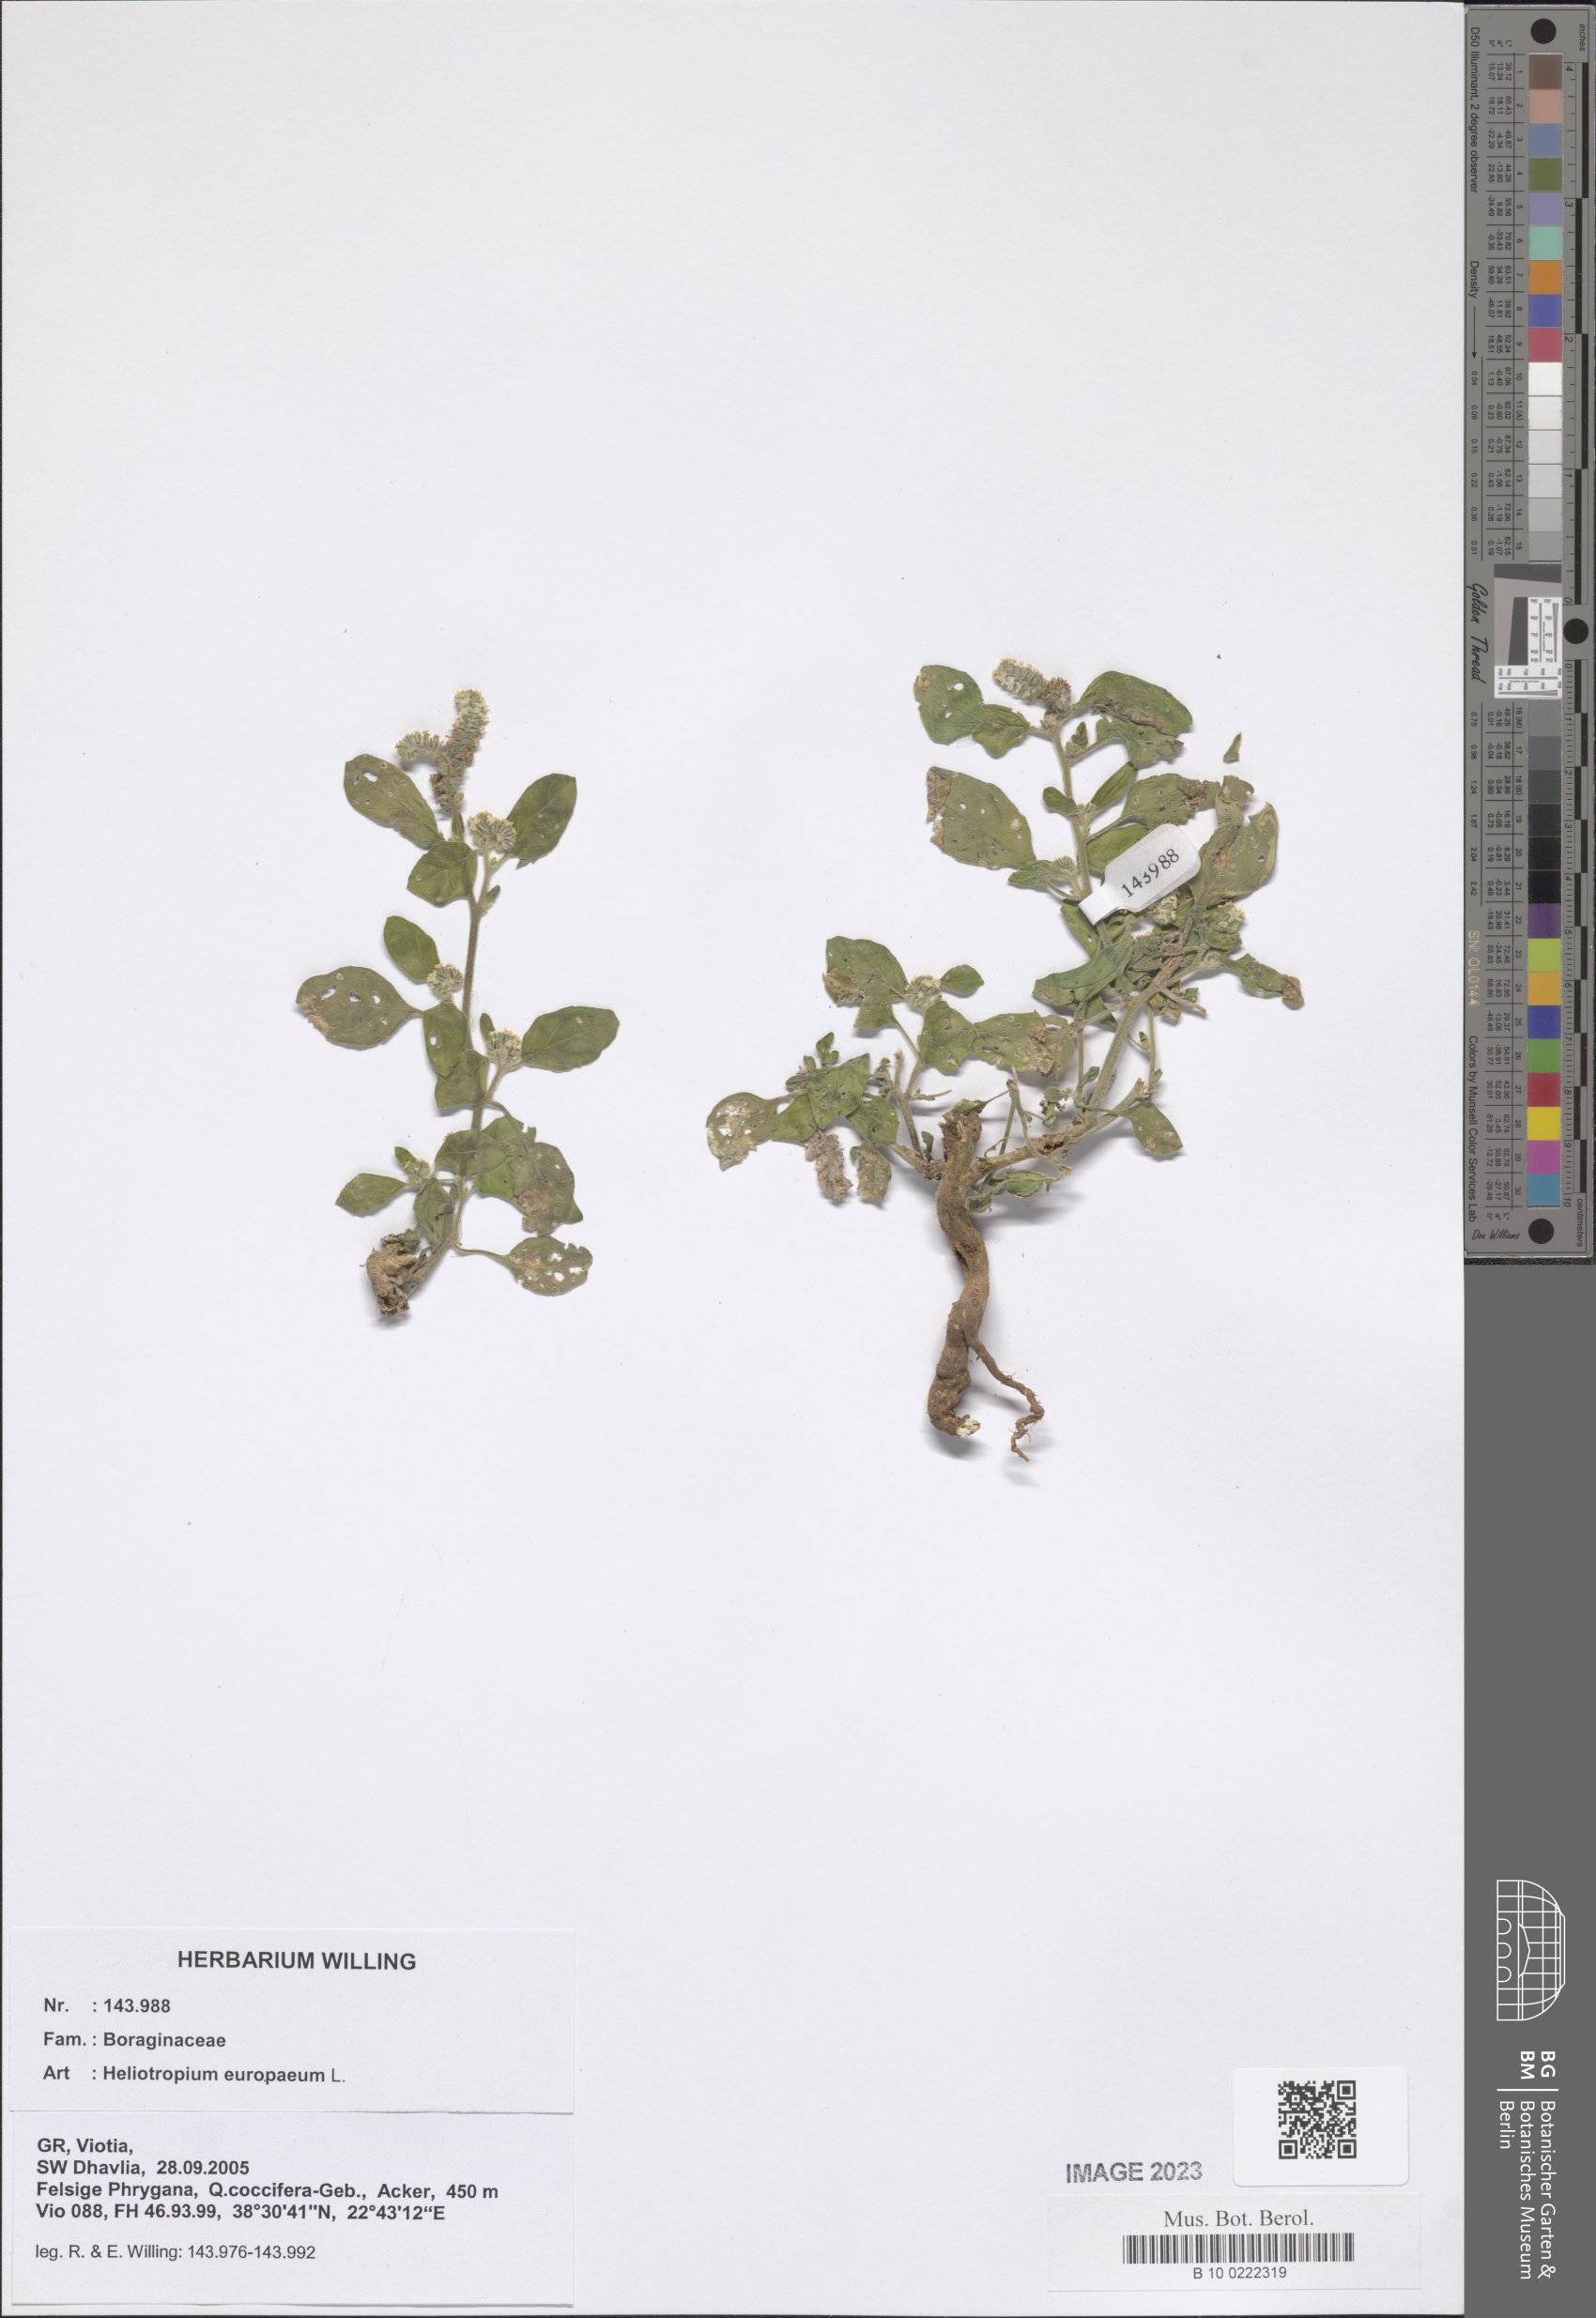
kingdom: Plantae
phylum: Tracheophyta
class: Magnoliopsida
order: Boraginales
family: Heliotropiaceae
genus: Heliotropium
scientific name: Heliotropium europaeum
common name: European heliotrope
